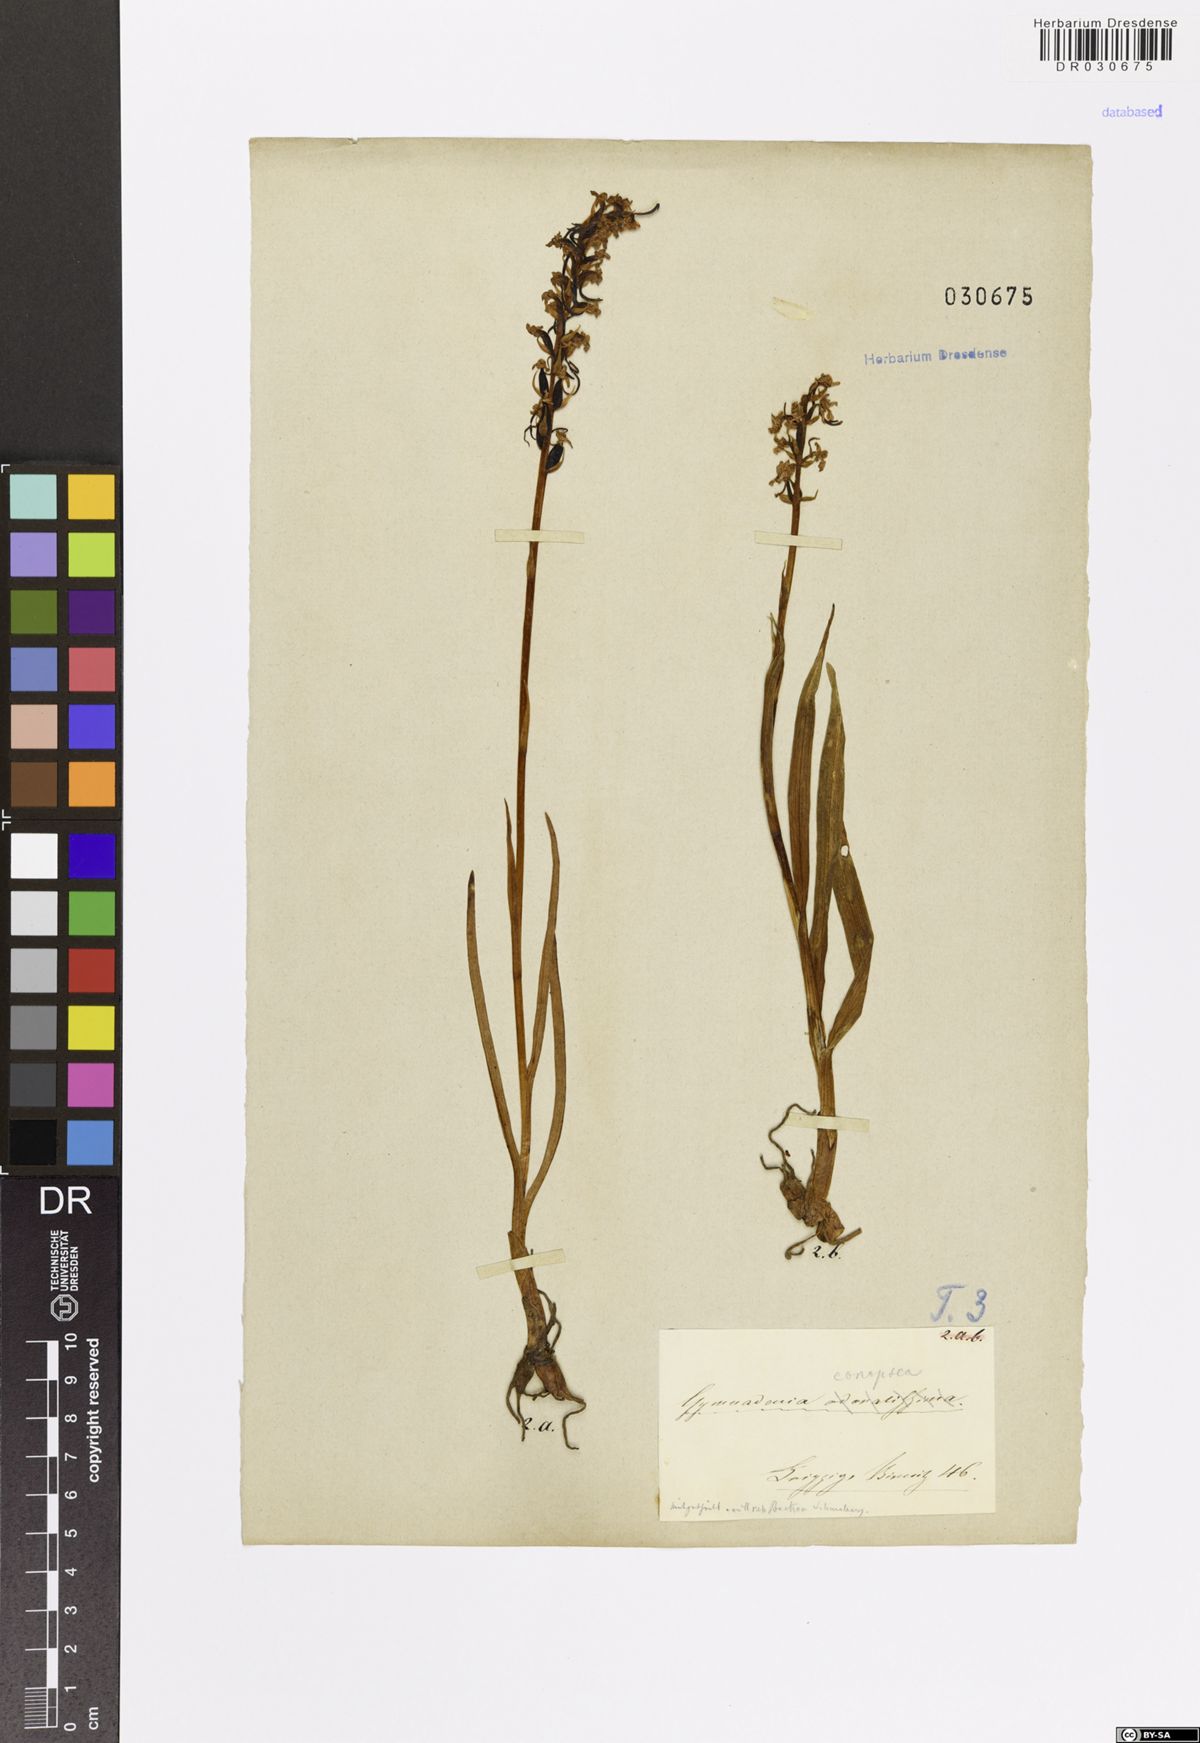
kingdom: Plantae
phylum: Tracheophyta
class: Liliopsida
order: Asparagales
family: Orchidaceae
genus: Gymnadenia
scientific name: Gymnadenia conopsea
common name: Fragrant orchid
